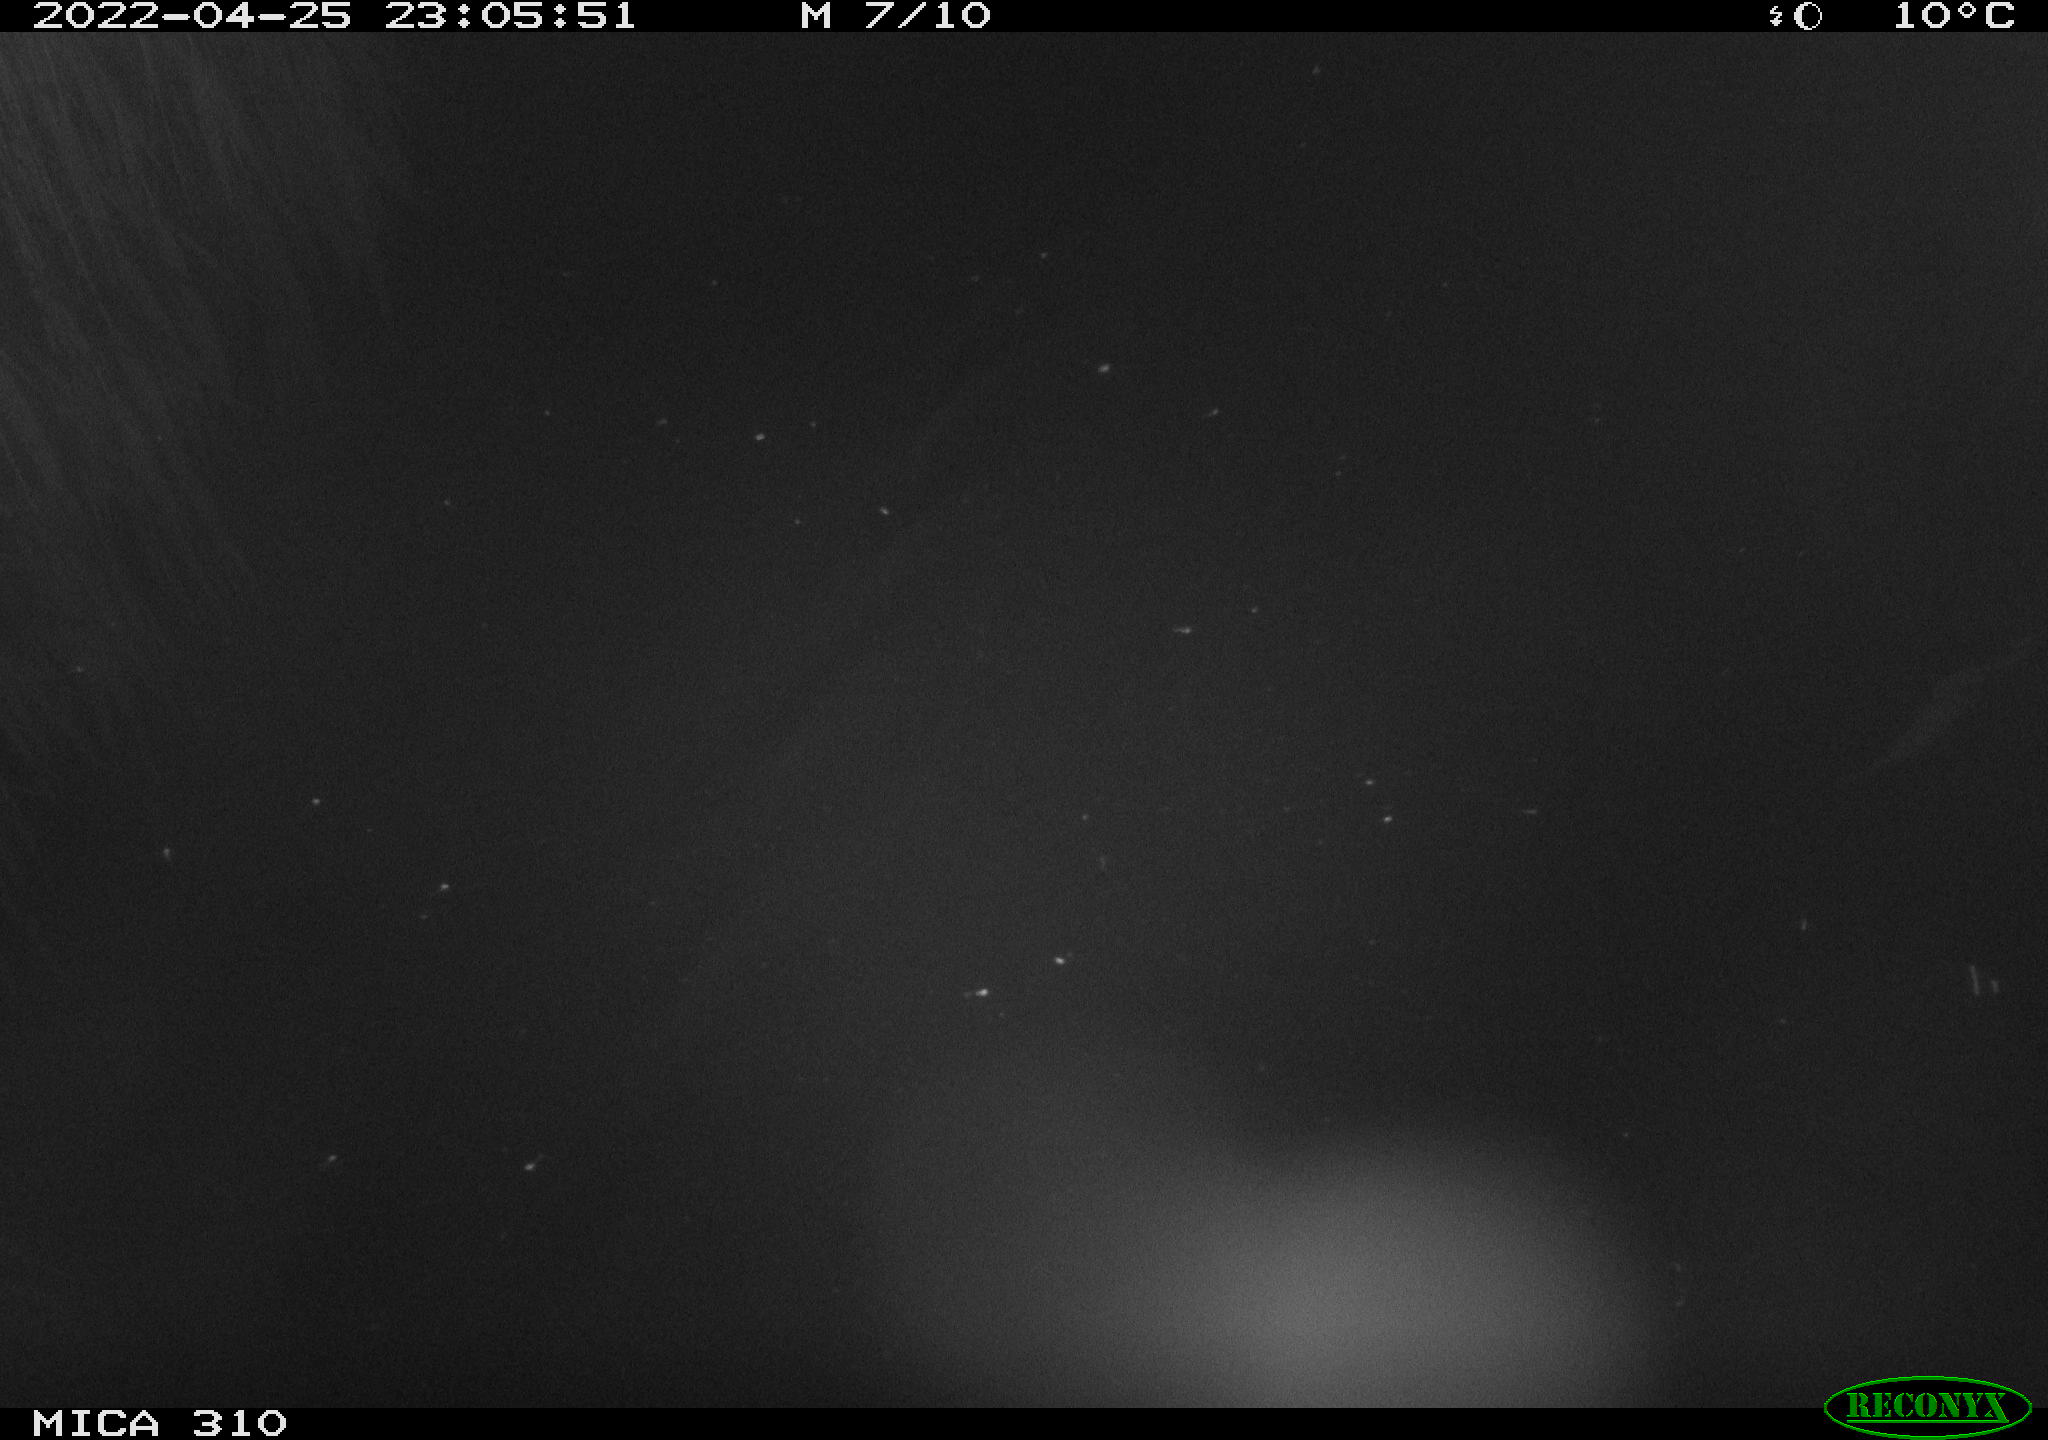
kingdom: Animalia
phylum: Chordata
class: Aves
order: Anseriformes
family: Anatidae
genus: Anas
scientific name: Anas platyrhynchos
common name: Mallard
